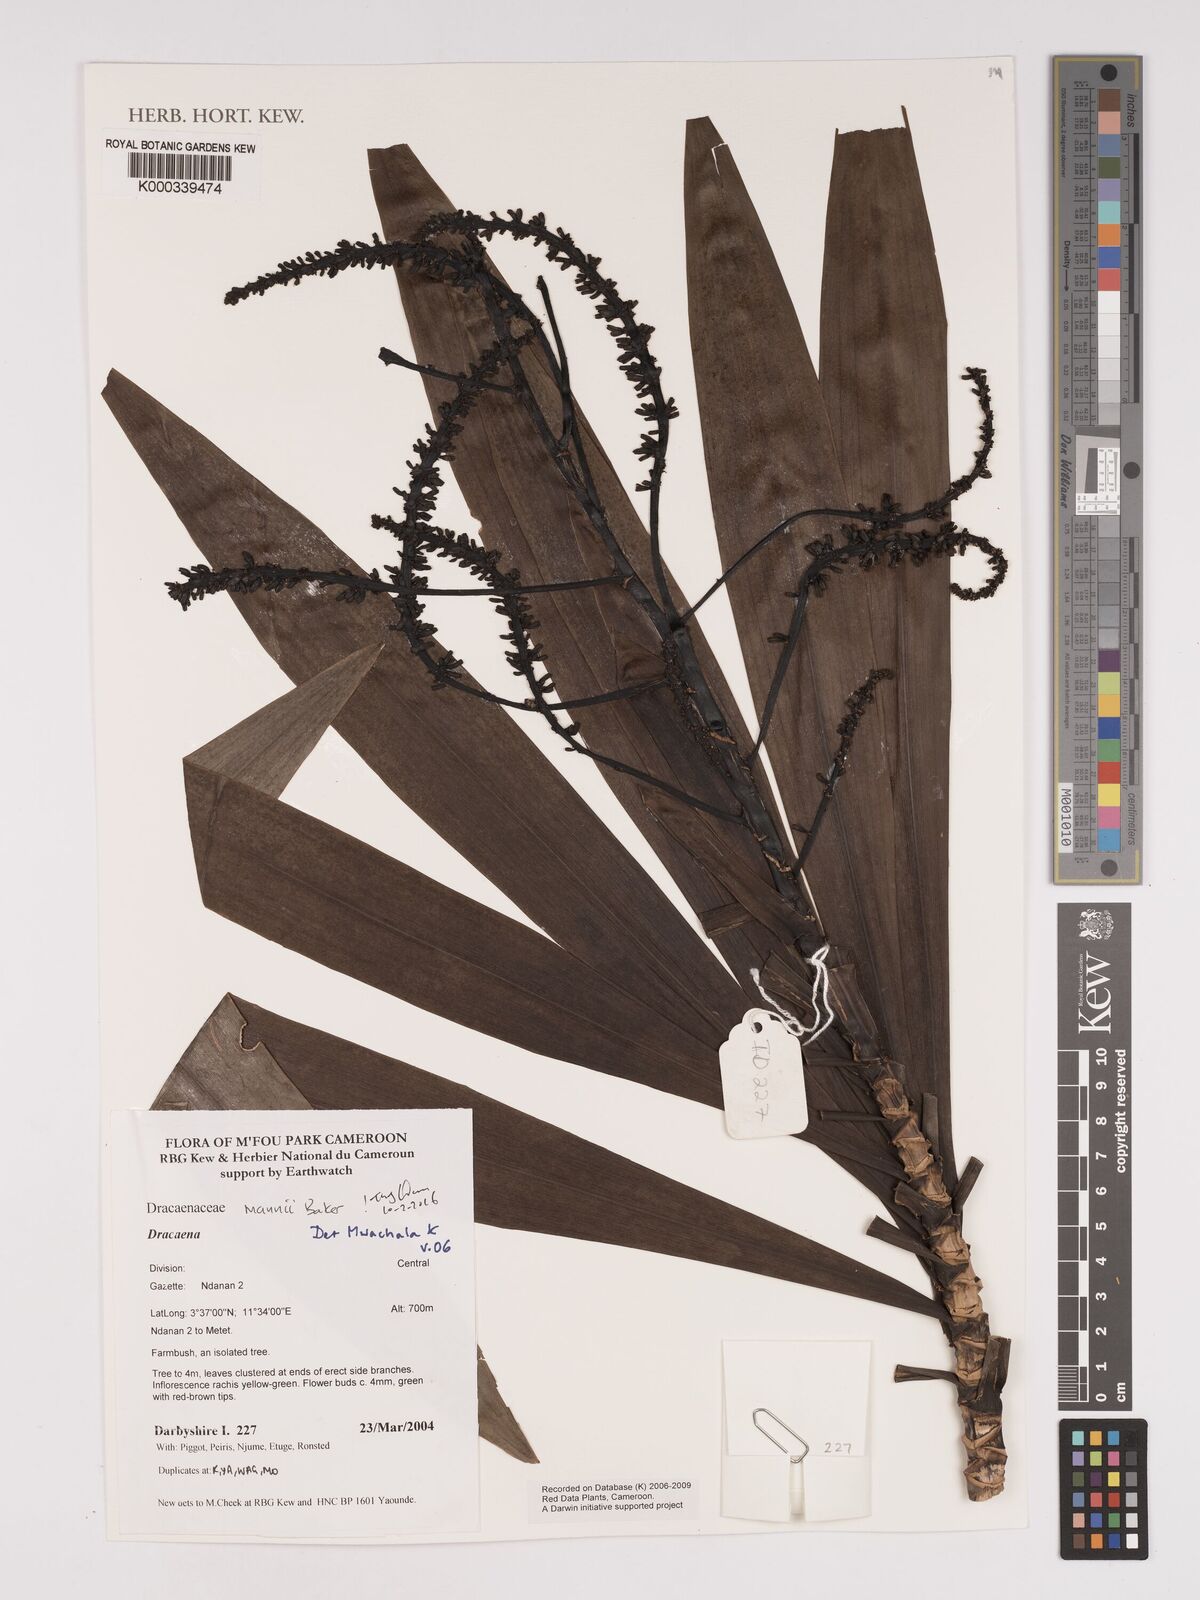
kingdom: Plantae
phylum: Tracheophyta
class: Liliopsida
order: Asparagales
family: Asparagaceae
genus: Dracaena
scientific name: Dracaena mannii
